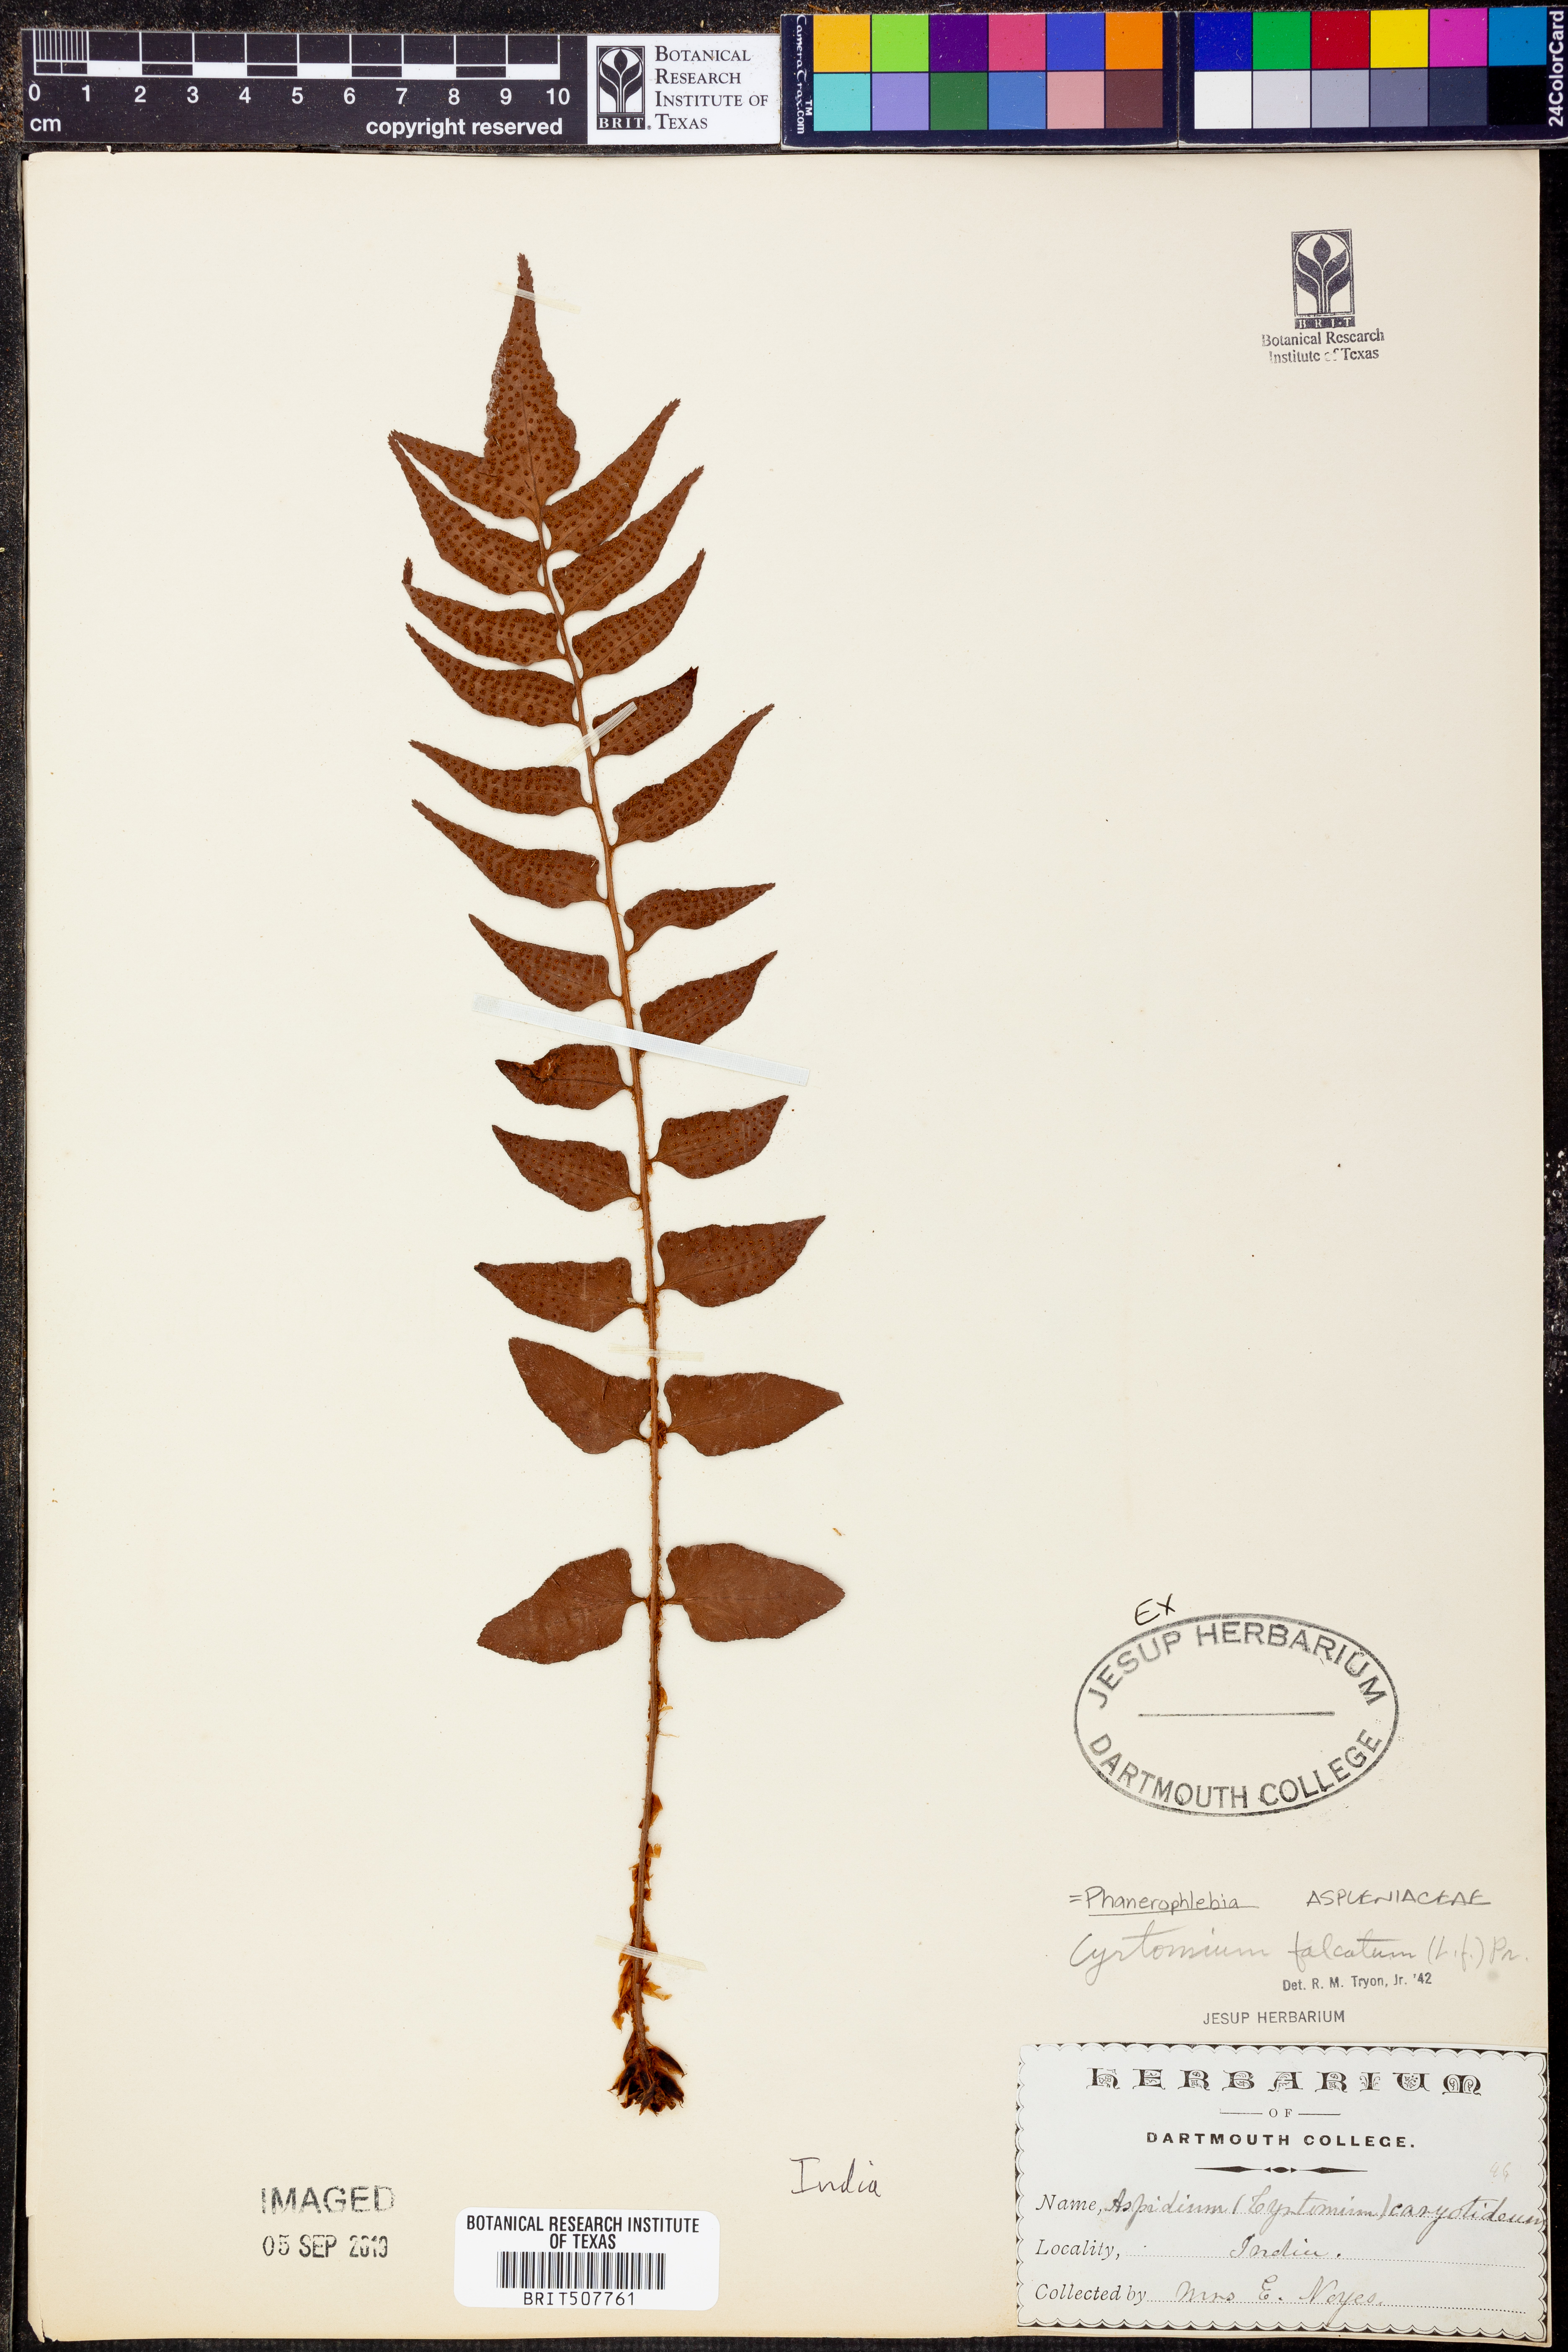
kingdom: Plantae
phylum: Tracheophyta
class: Polypodiopsida
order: Polypodiales
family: Dryopteridaceae
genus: Cyrtomium
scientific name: Cyrtomium falcatum
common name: House holly-fern
